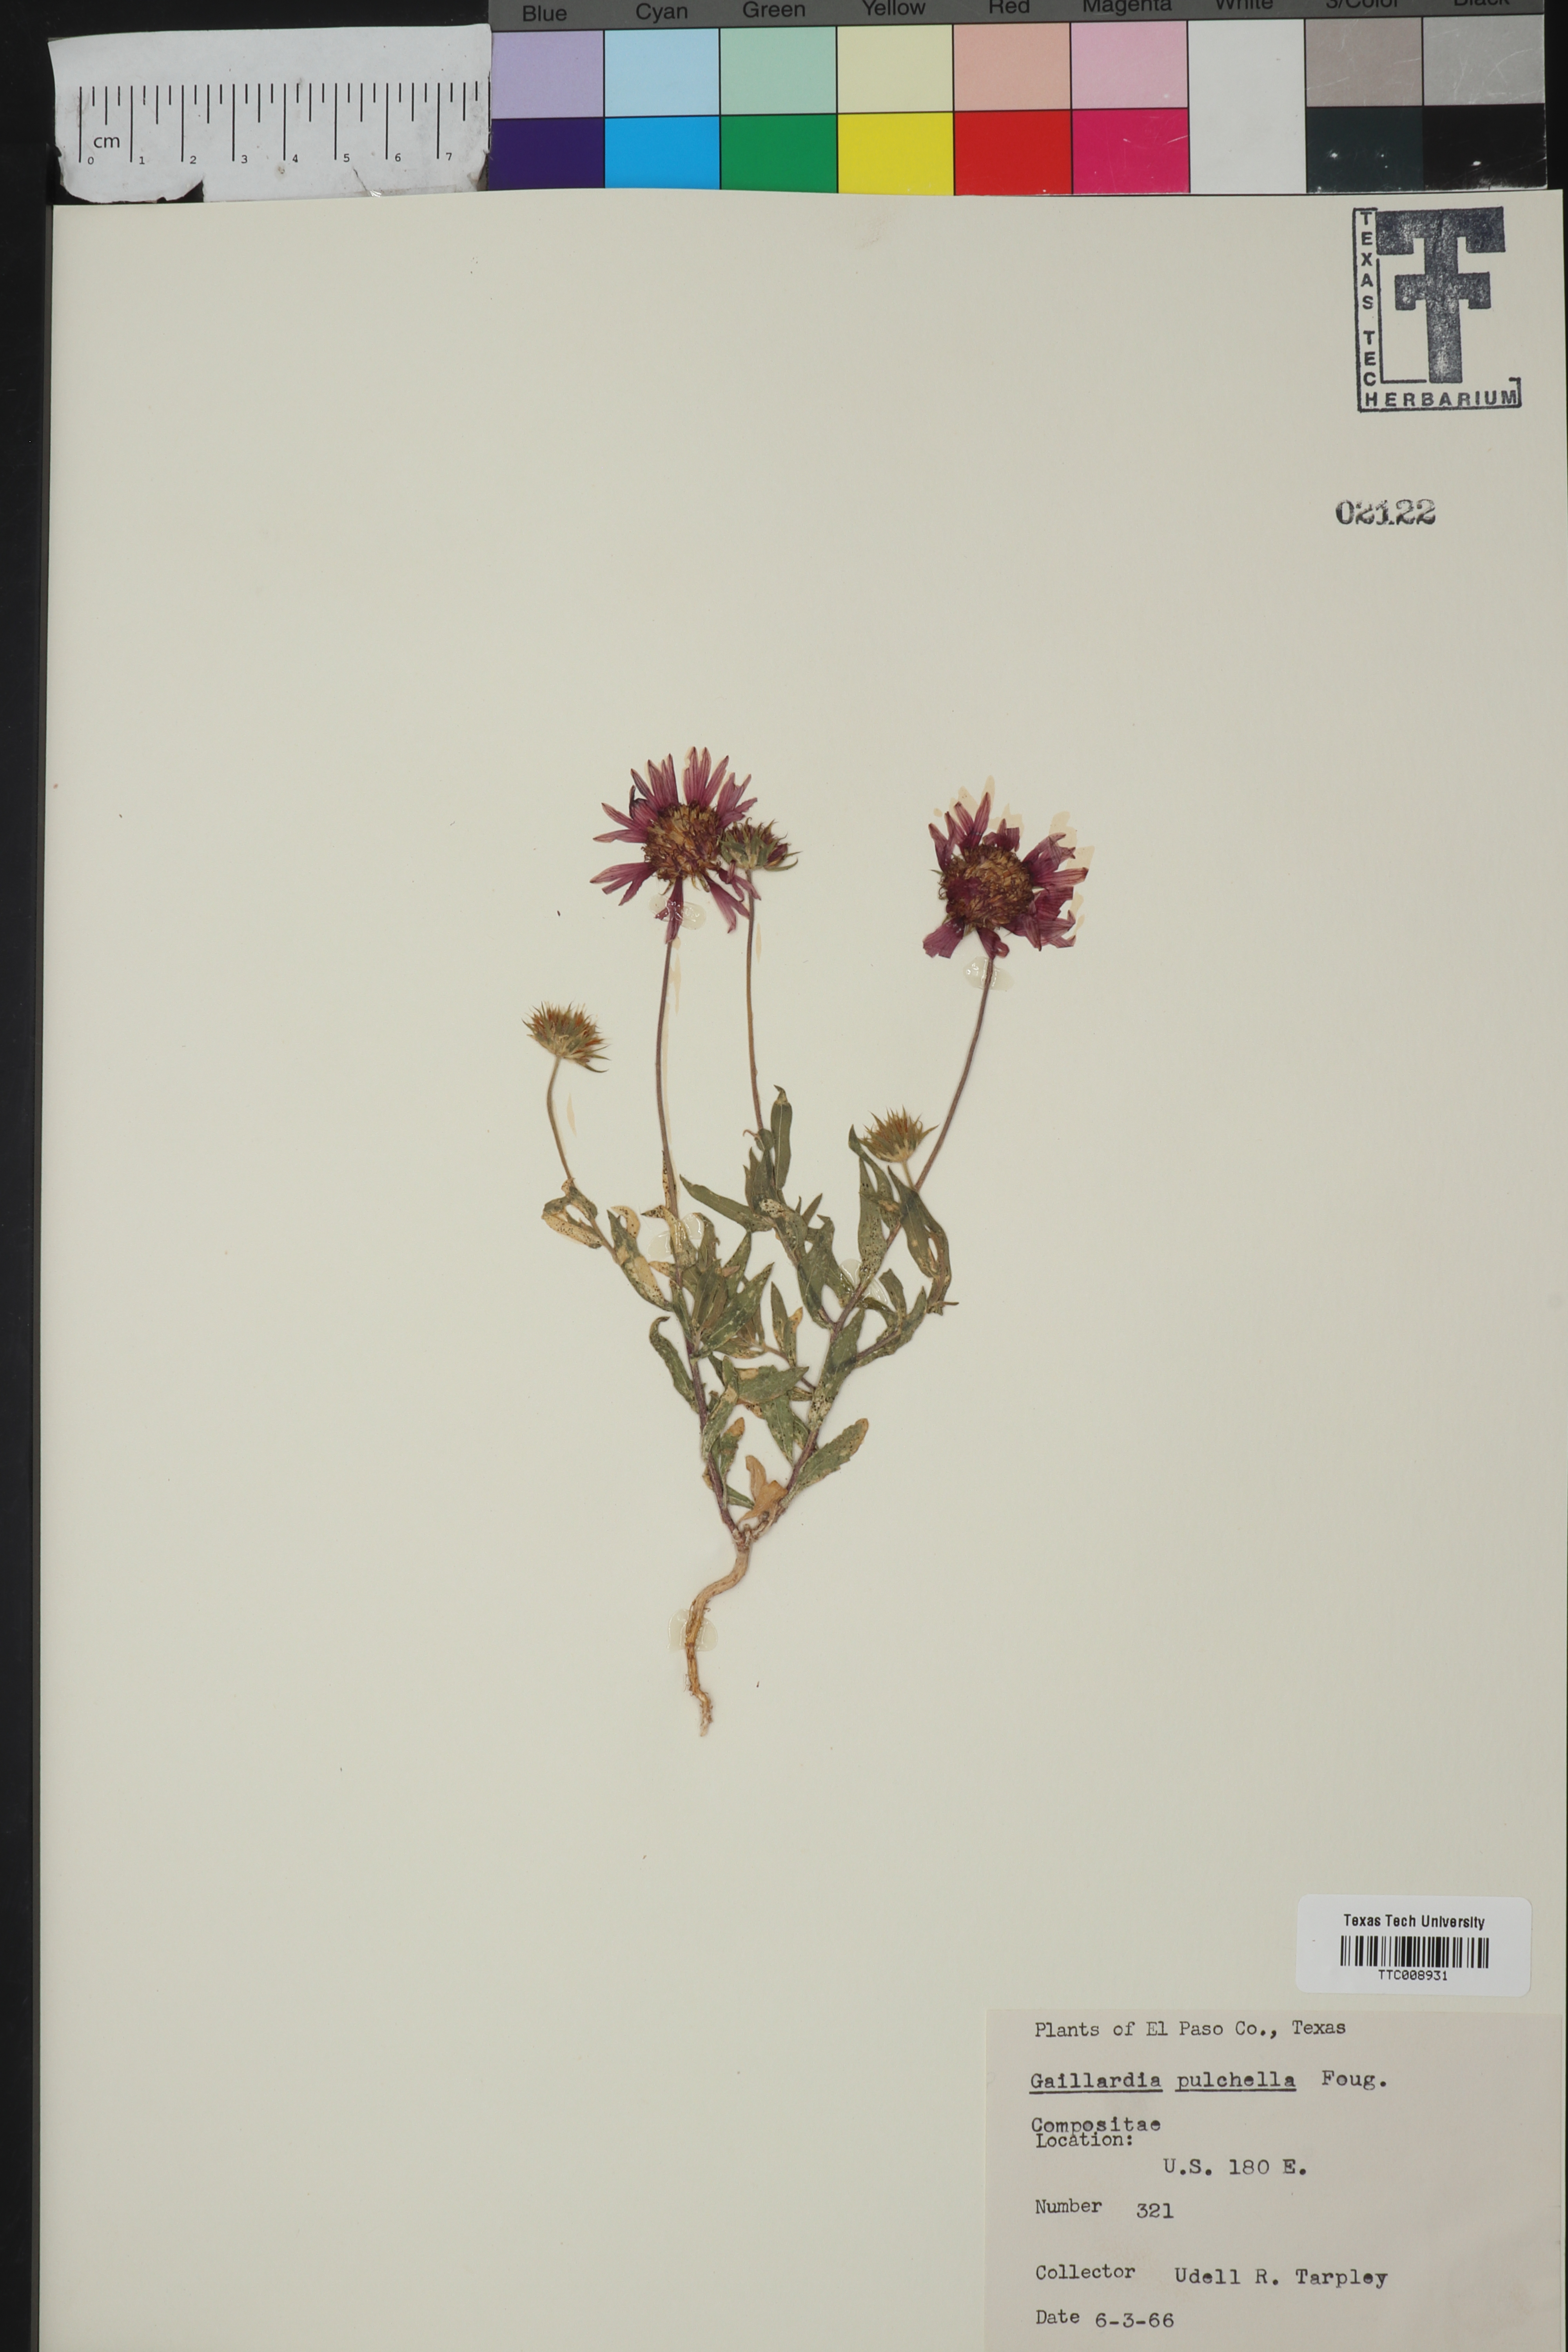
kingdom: Plantae
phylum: Tracheophyta
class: Magnoliopsida
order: Asterales
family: Asteraceae
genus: Gaillardia
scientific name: Gaillardia pulchella
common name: Firewheel
